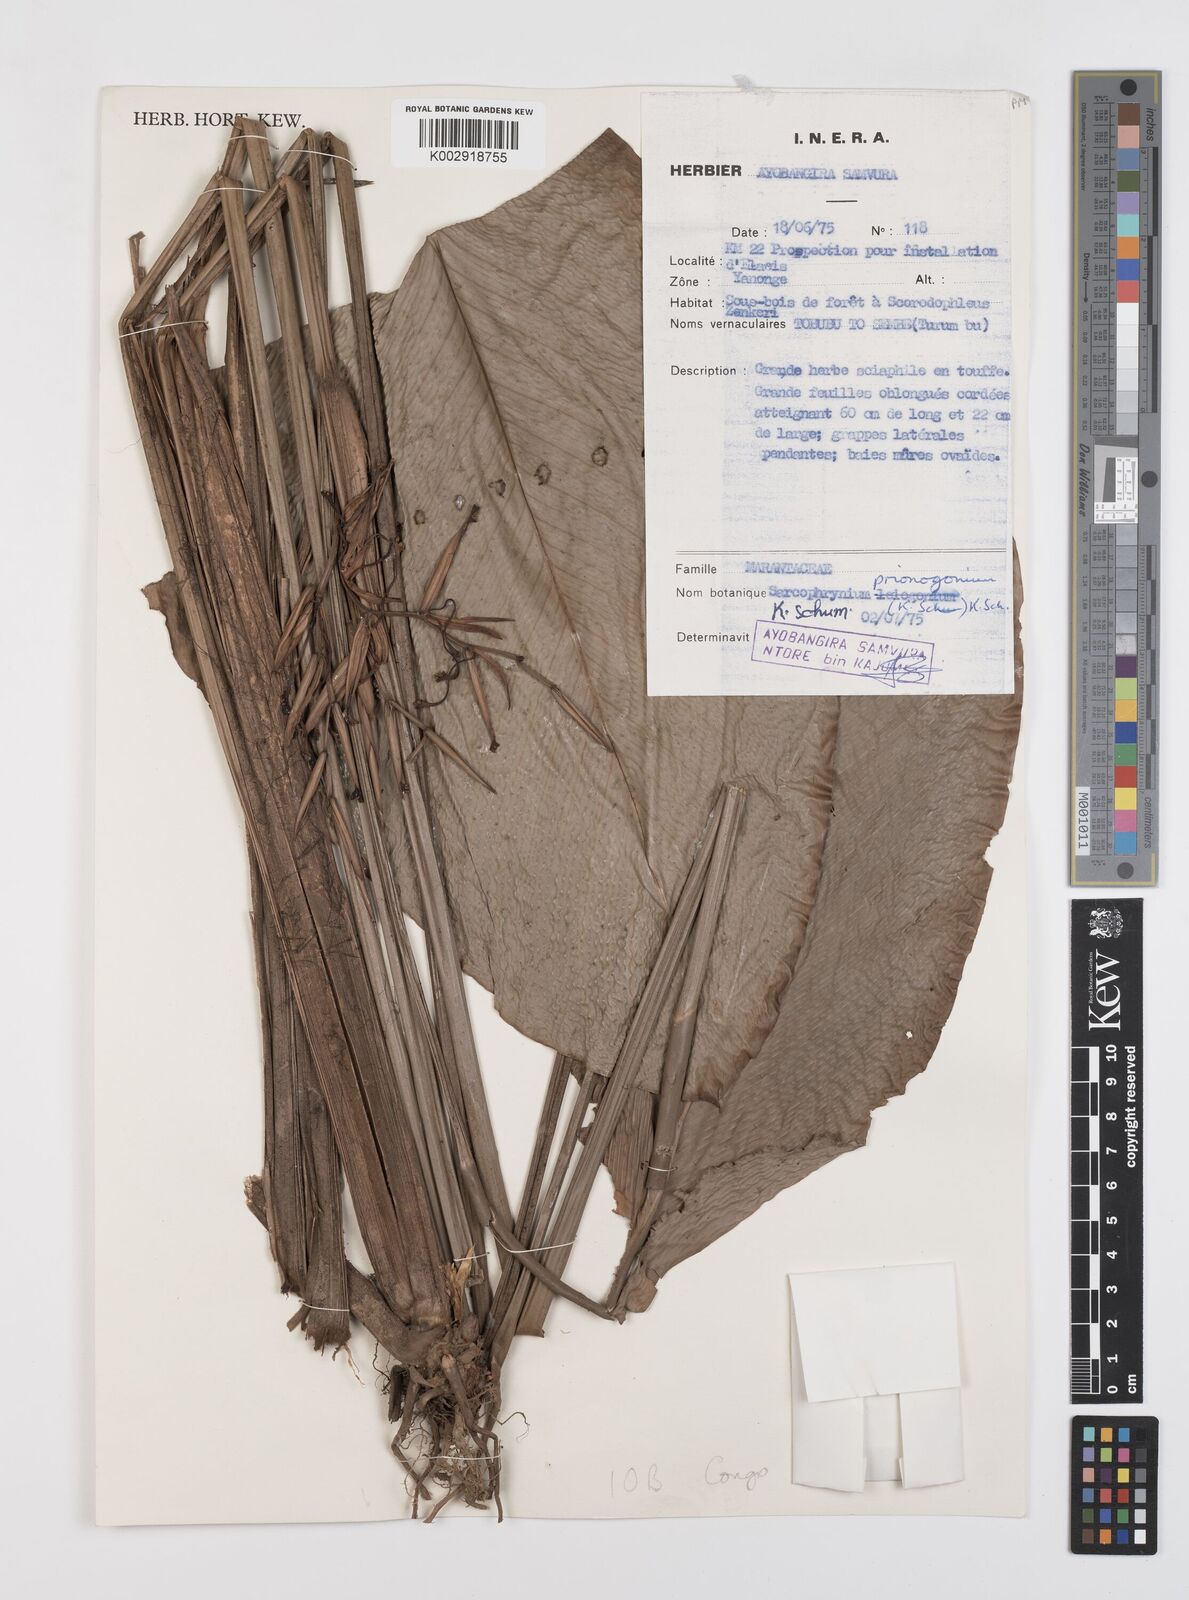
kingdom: Plantae
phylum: Tracheophyta
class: Liliopsida
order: Zingiberales
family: Marantaceae
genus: Sarcophrynium
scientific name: Sarcophrynium prionogonium
